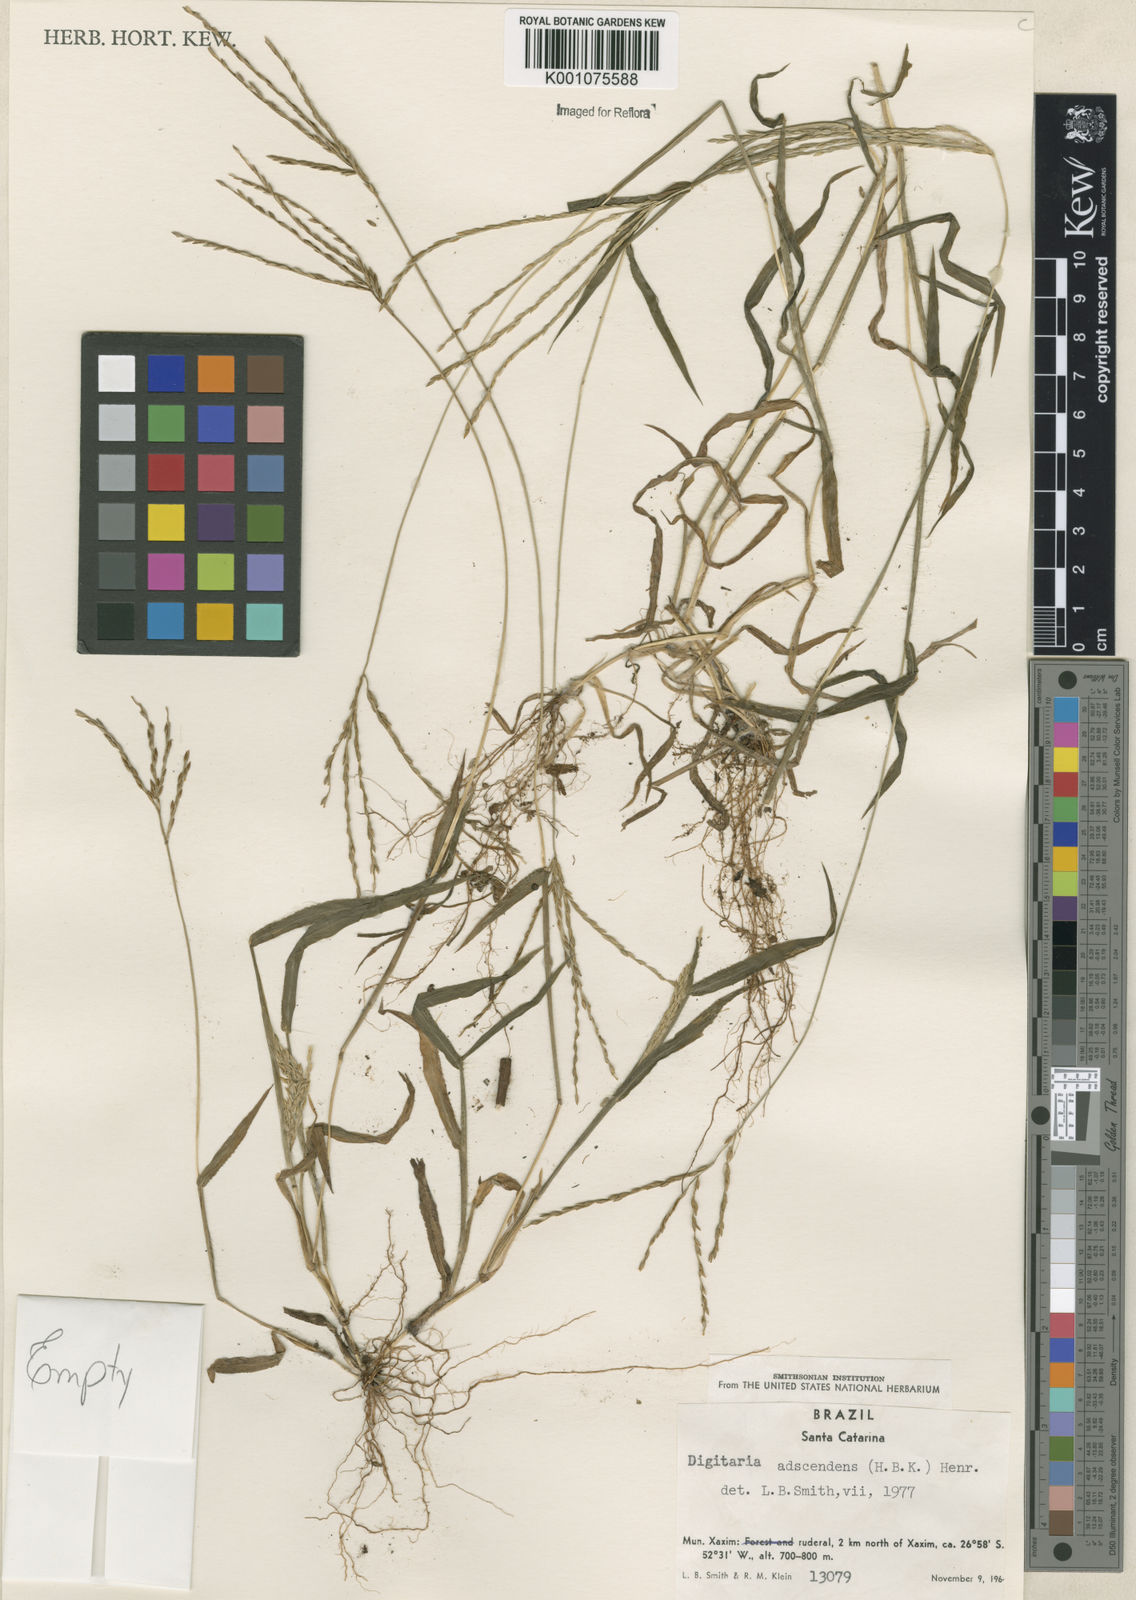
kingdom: Plantae
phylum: Tracheophyta
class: Liliopsida
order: Poales
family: Poaceae
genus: Digitaria
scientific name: Digitaria ciliaris
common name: Tropical finger-grass
